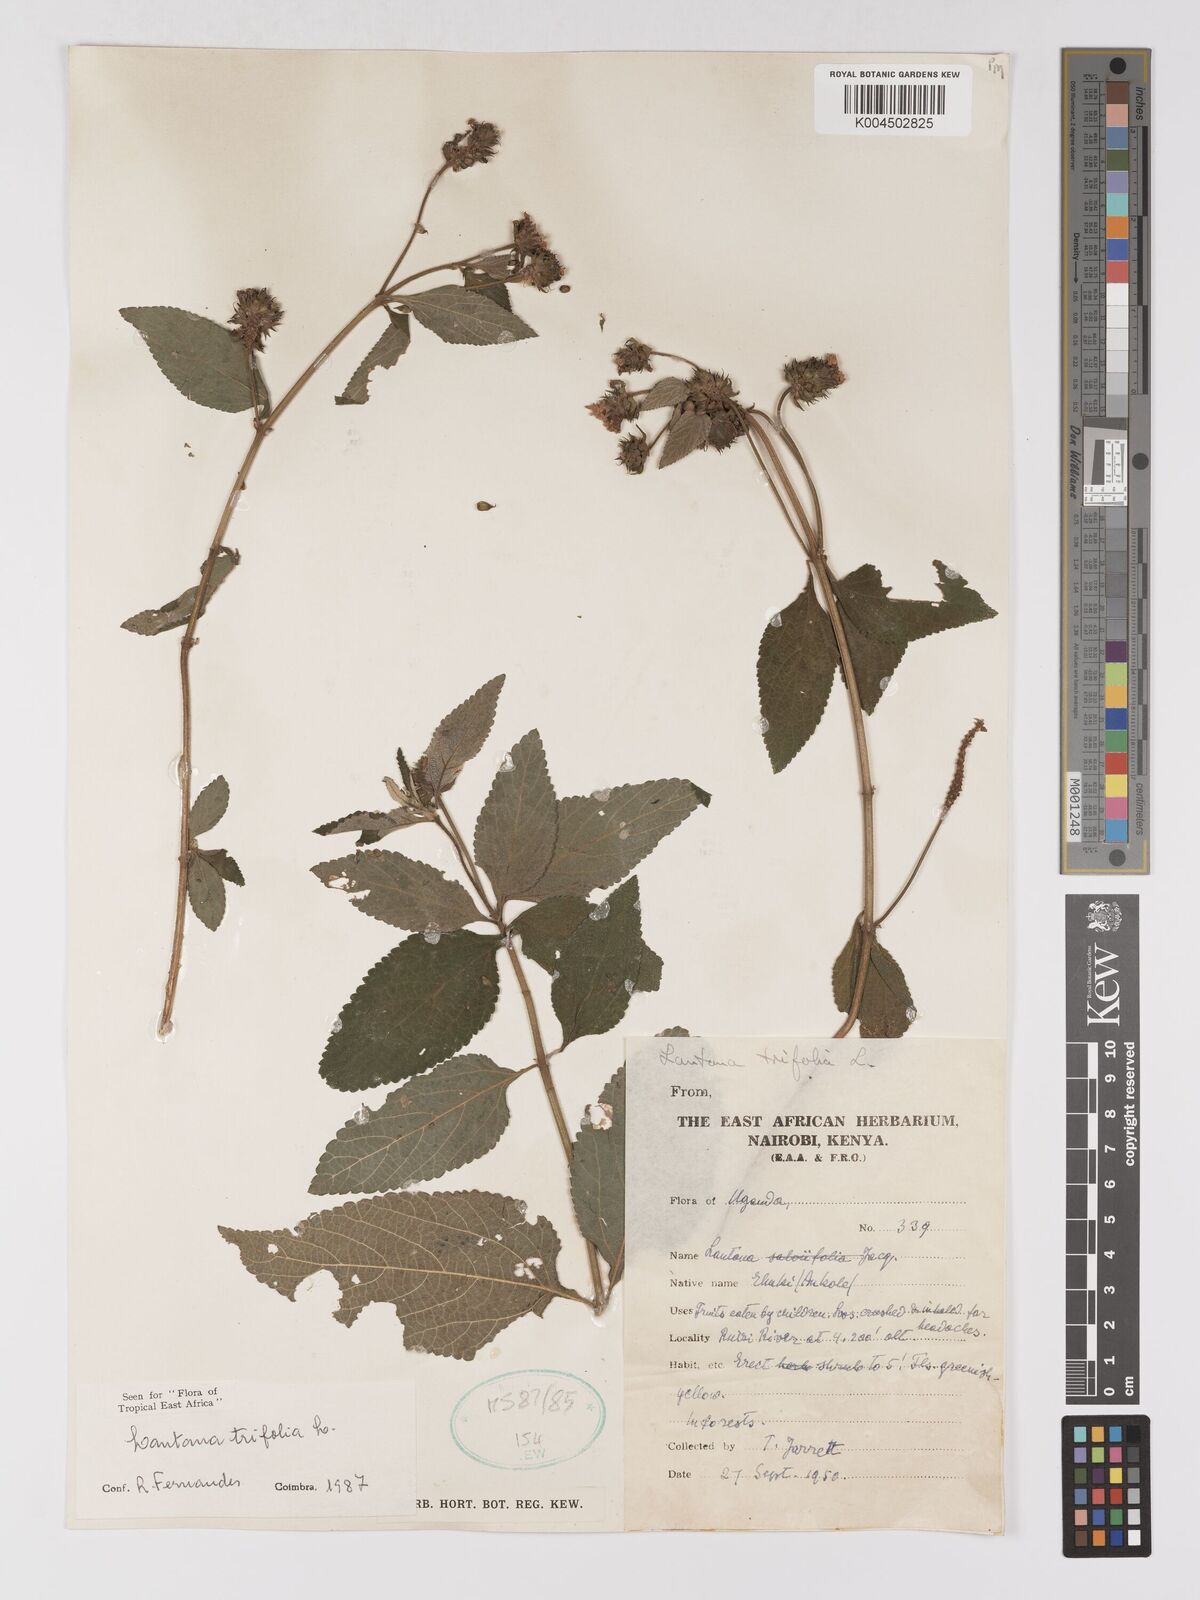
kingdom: Plantae
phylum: Tracheophyta
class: Magnoliopsida
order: Lamiales
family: Verbenaceae
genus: Lantana
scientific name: Lantana trifolia
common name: Sweet-sage
